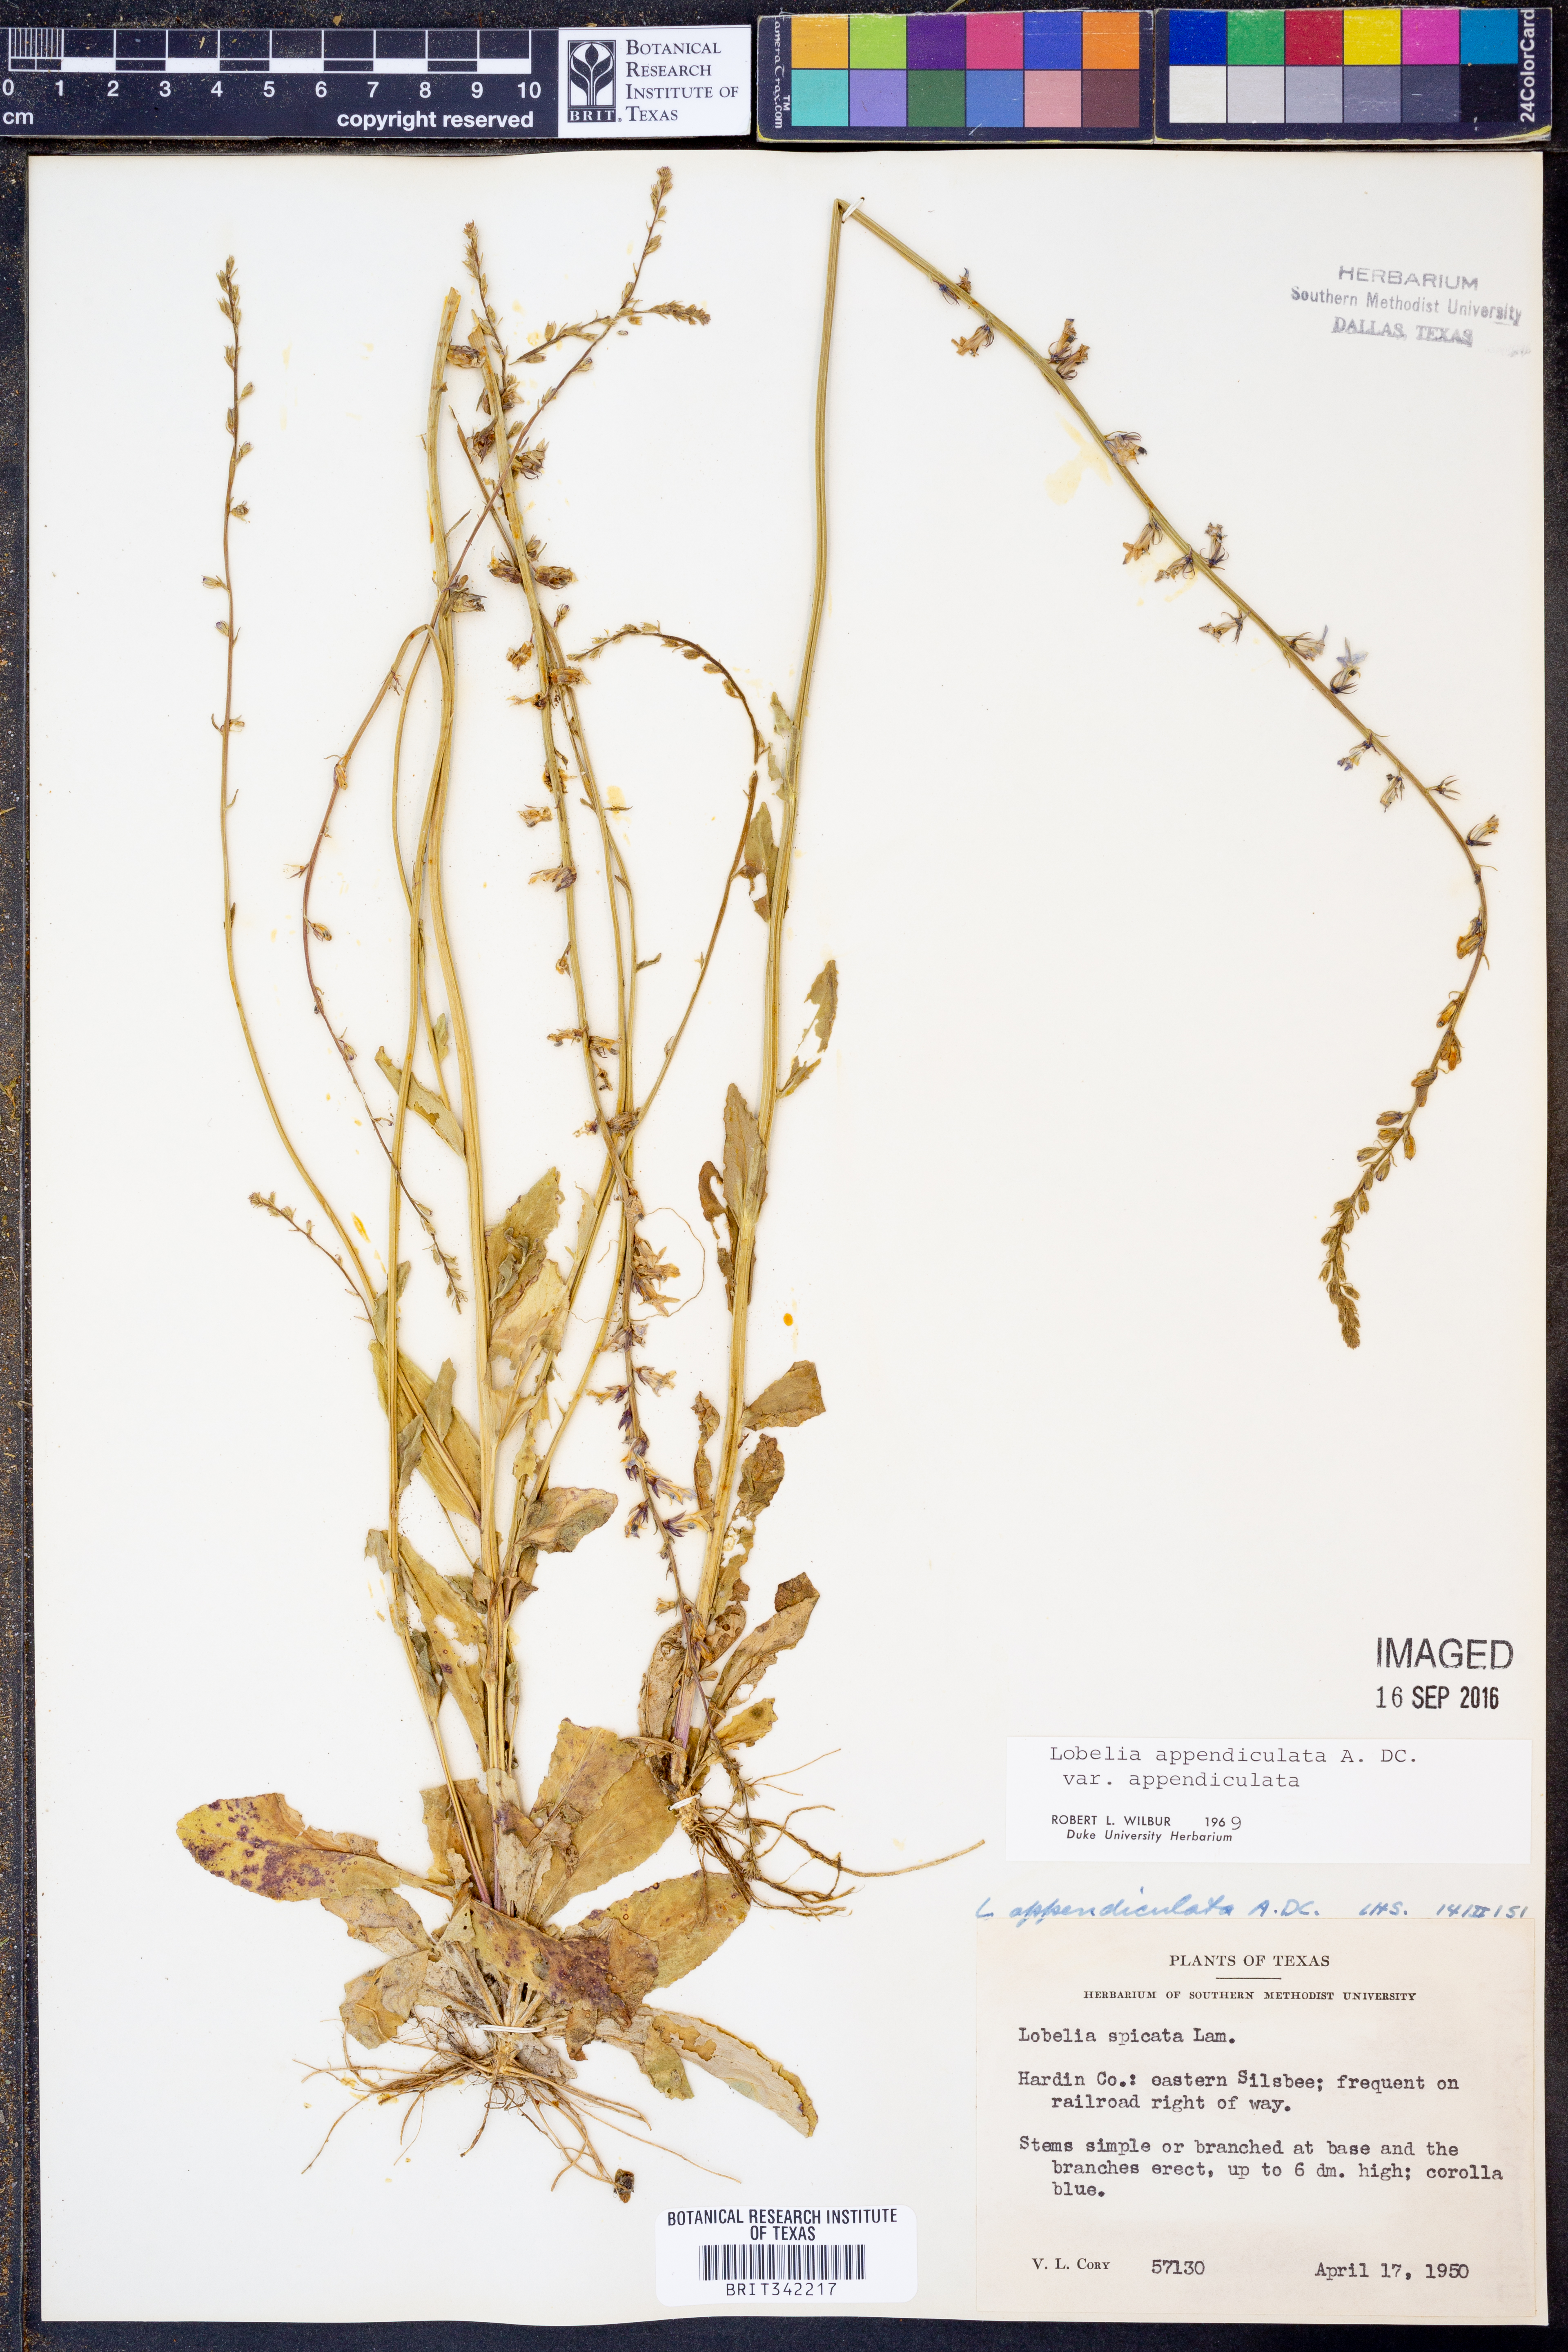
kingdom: Plantae
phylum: Tracheophyta
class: Magnoliopsida
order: Asterales
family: Campanulaceae
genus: Lobelia
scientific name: Lobelia appendiculata
